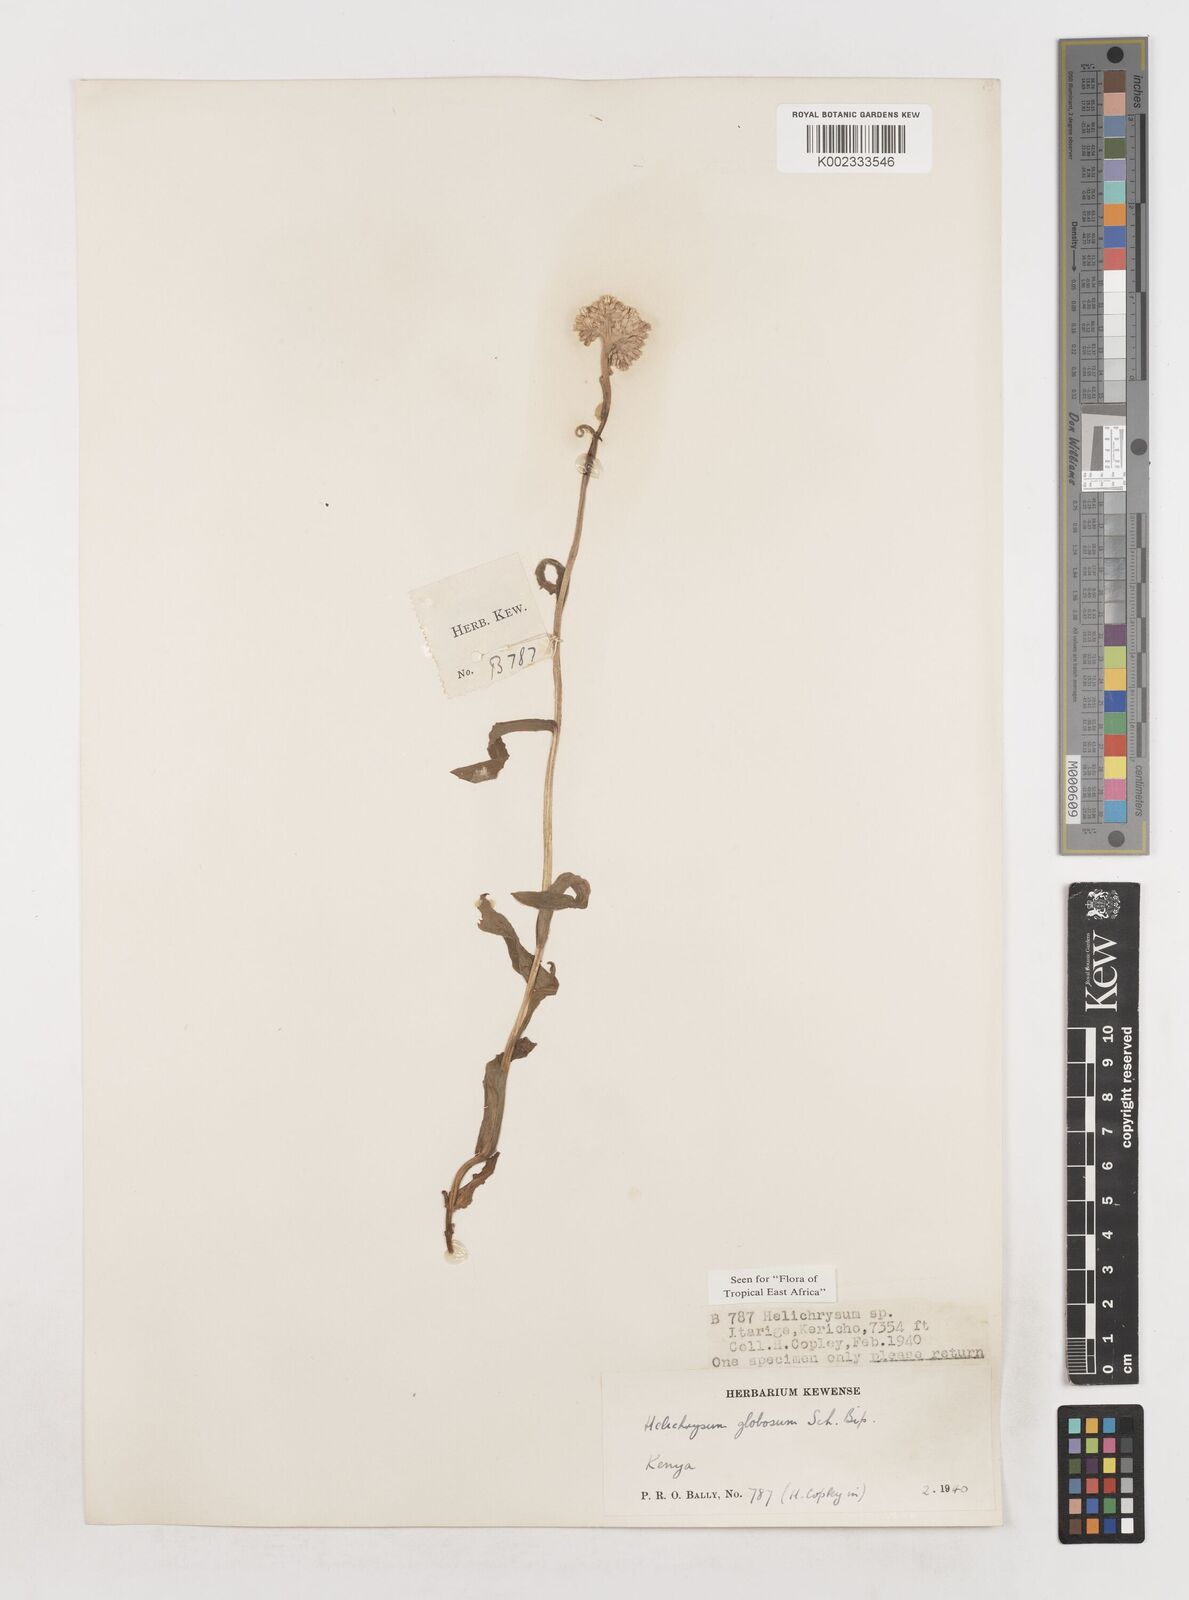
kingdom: Plantae
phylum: Tracheophyta
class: Magnoliopsida
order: Asterales
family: Asteraceae
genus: Helichrysum
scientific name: Helichrysum globosum
